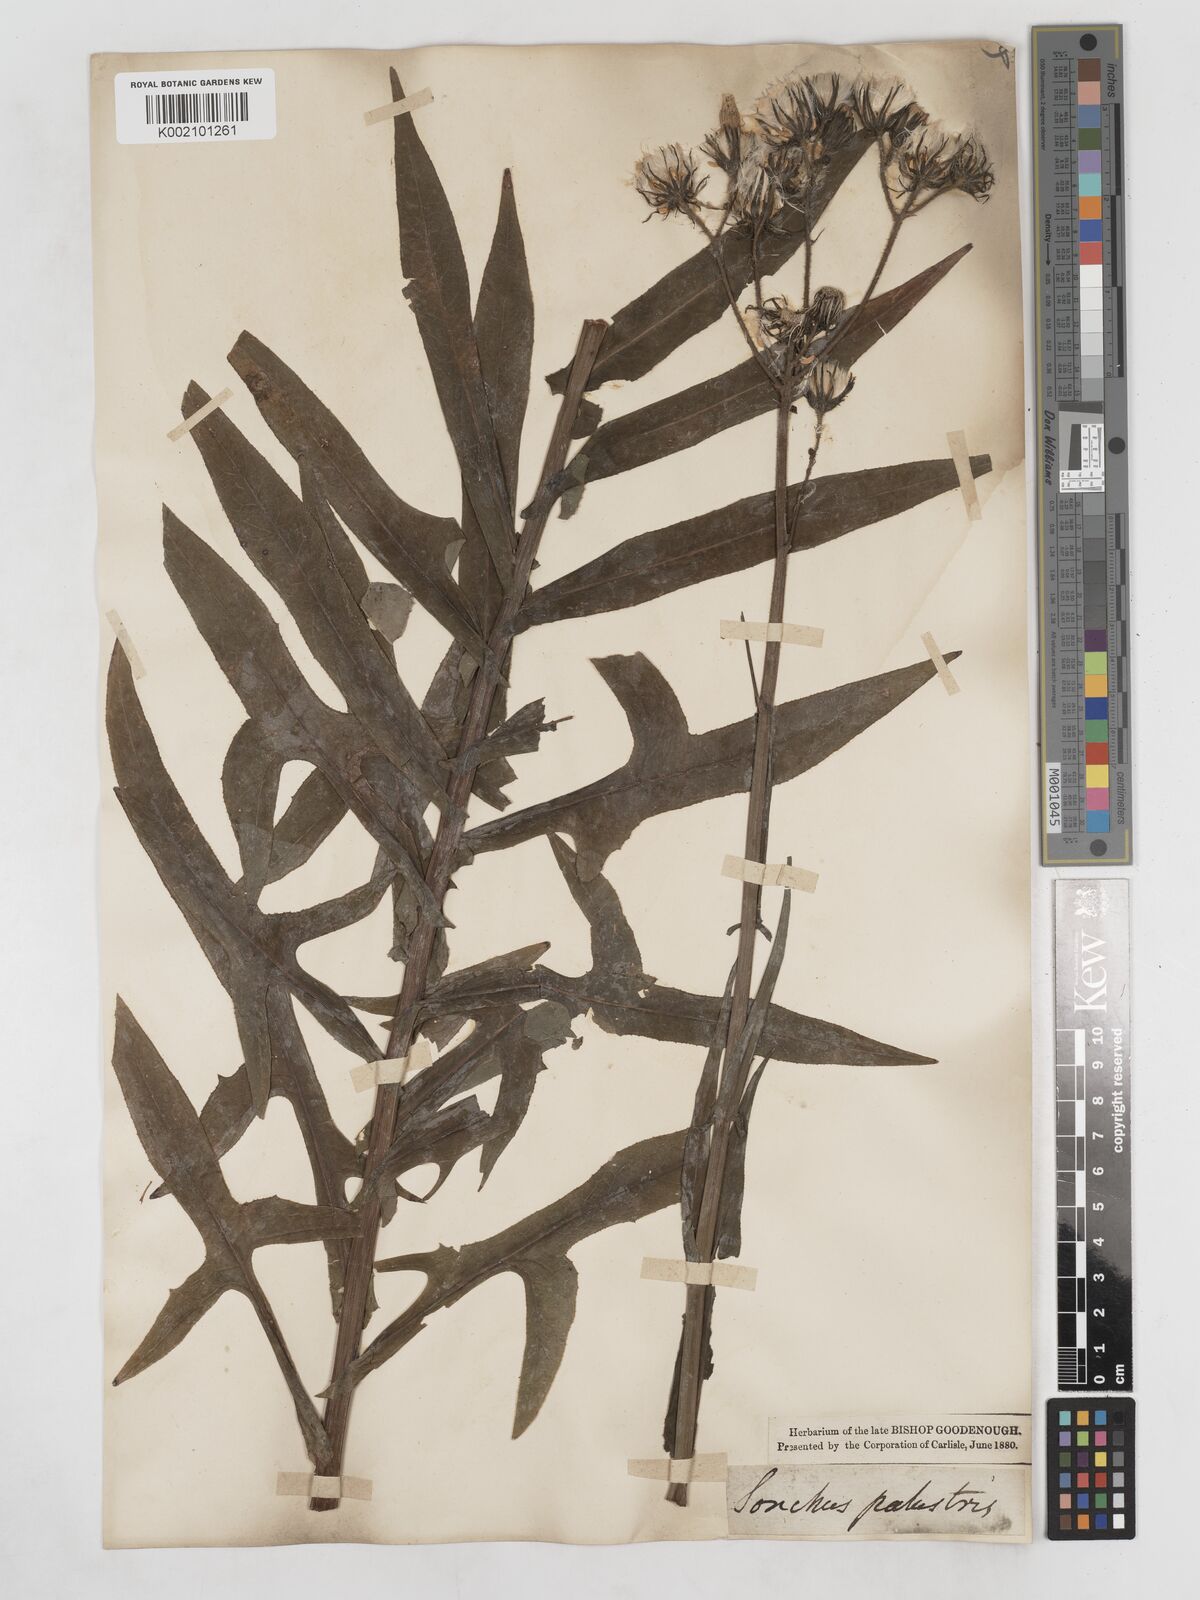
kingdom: Plantae
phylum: Tracheophyta
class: Magnoliopsida
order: Asterales
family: Asteraceae
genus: Sonchus
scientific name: Sonchus palustris
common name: Marsh sow-thistle
